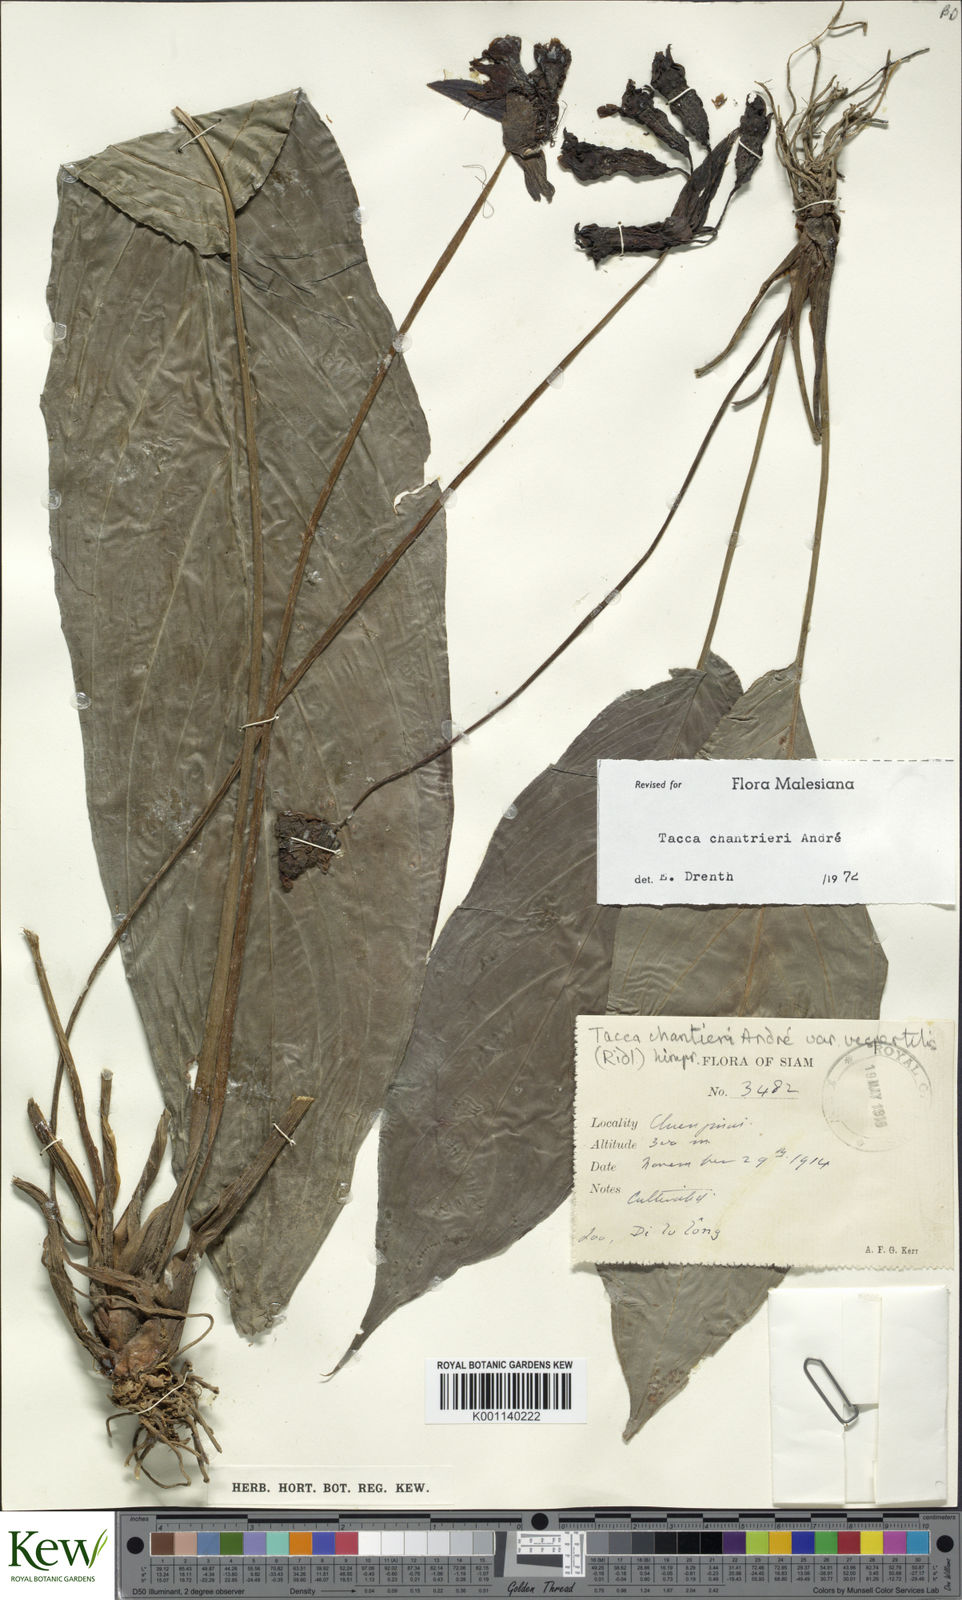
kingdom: Plantae
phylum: Tracheophyta
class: Liliopsida
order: Dioscoreales
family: Dioscoreaceae
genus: Tacca
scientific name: Tacca
